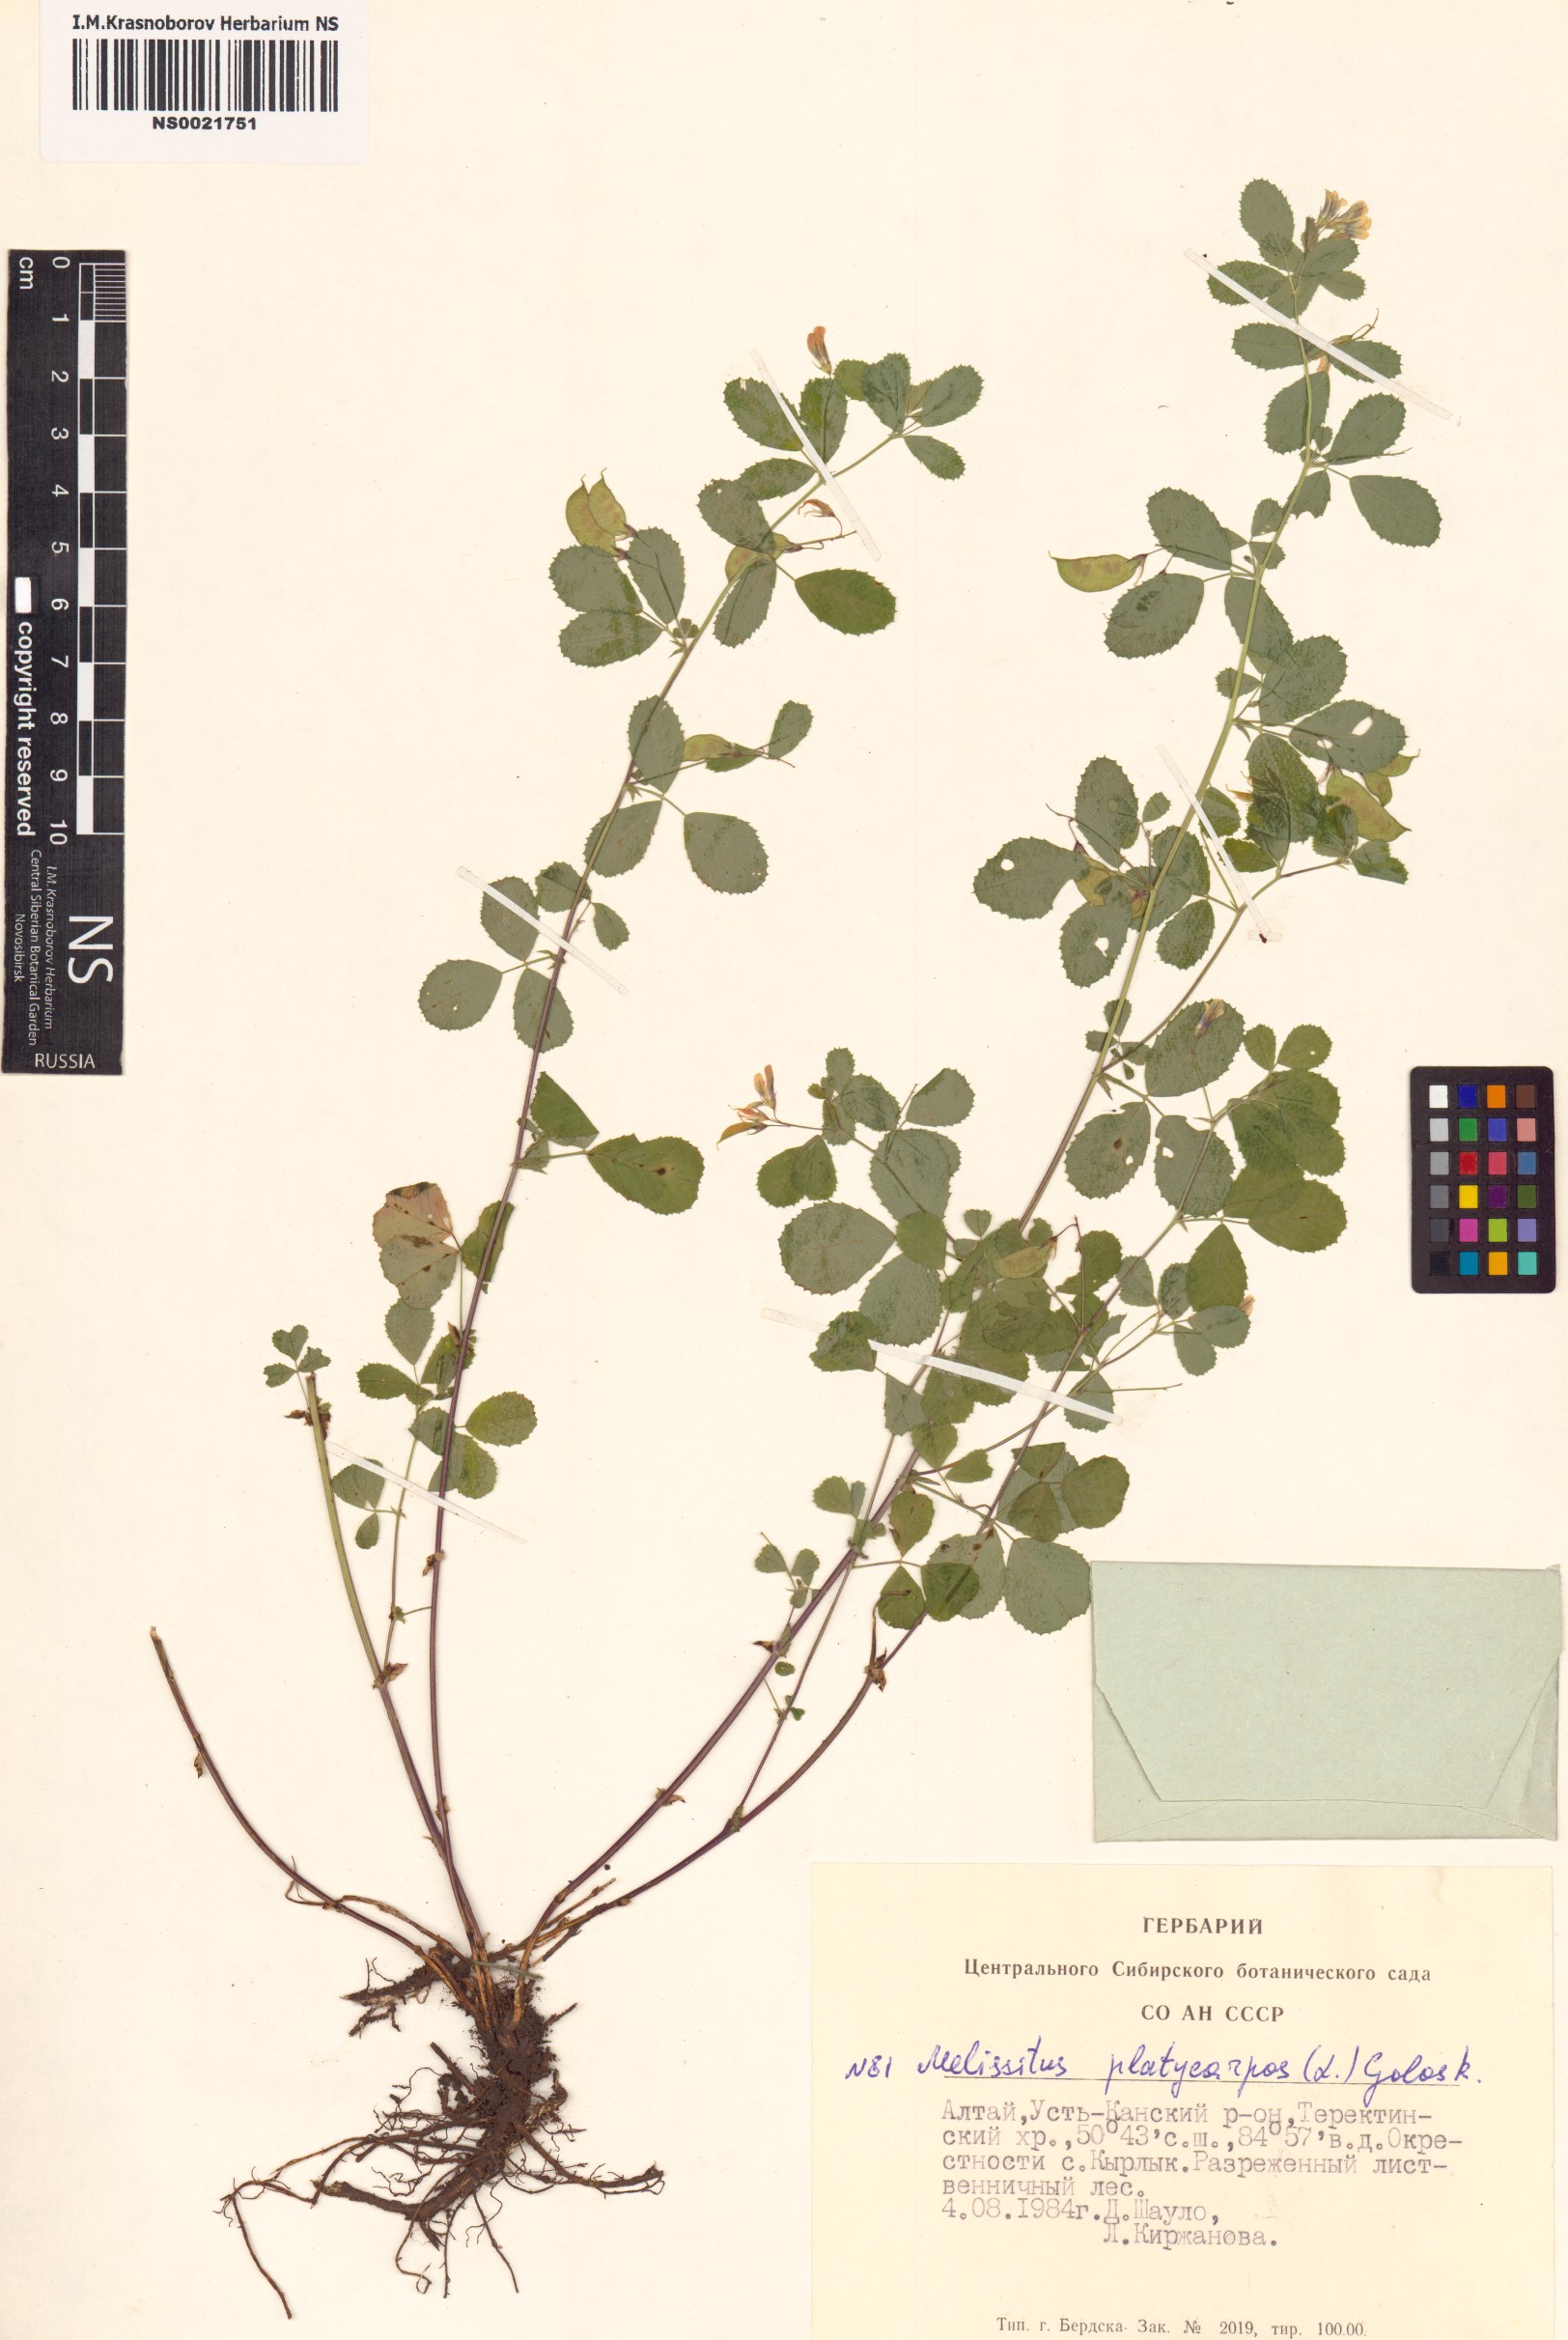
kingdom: Plantae
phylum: Tracheophyta
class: Magnoliopsida
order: Fabales
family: Fabaceae
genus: Medicago
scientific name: Medicago platycarpos
